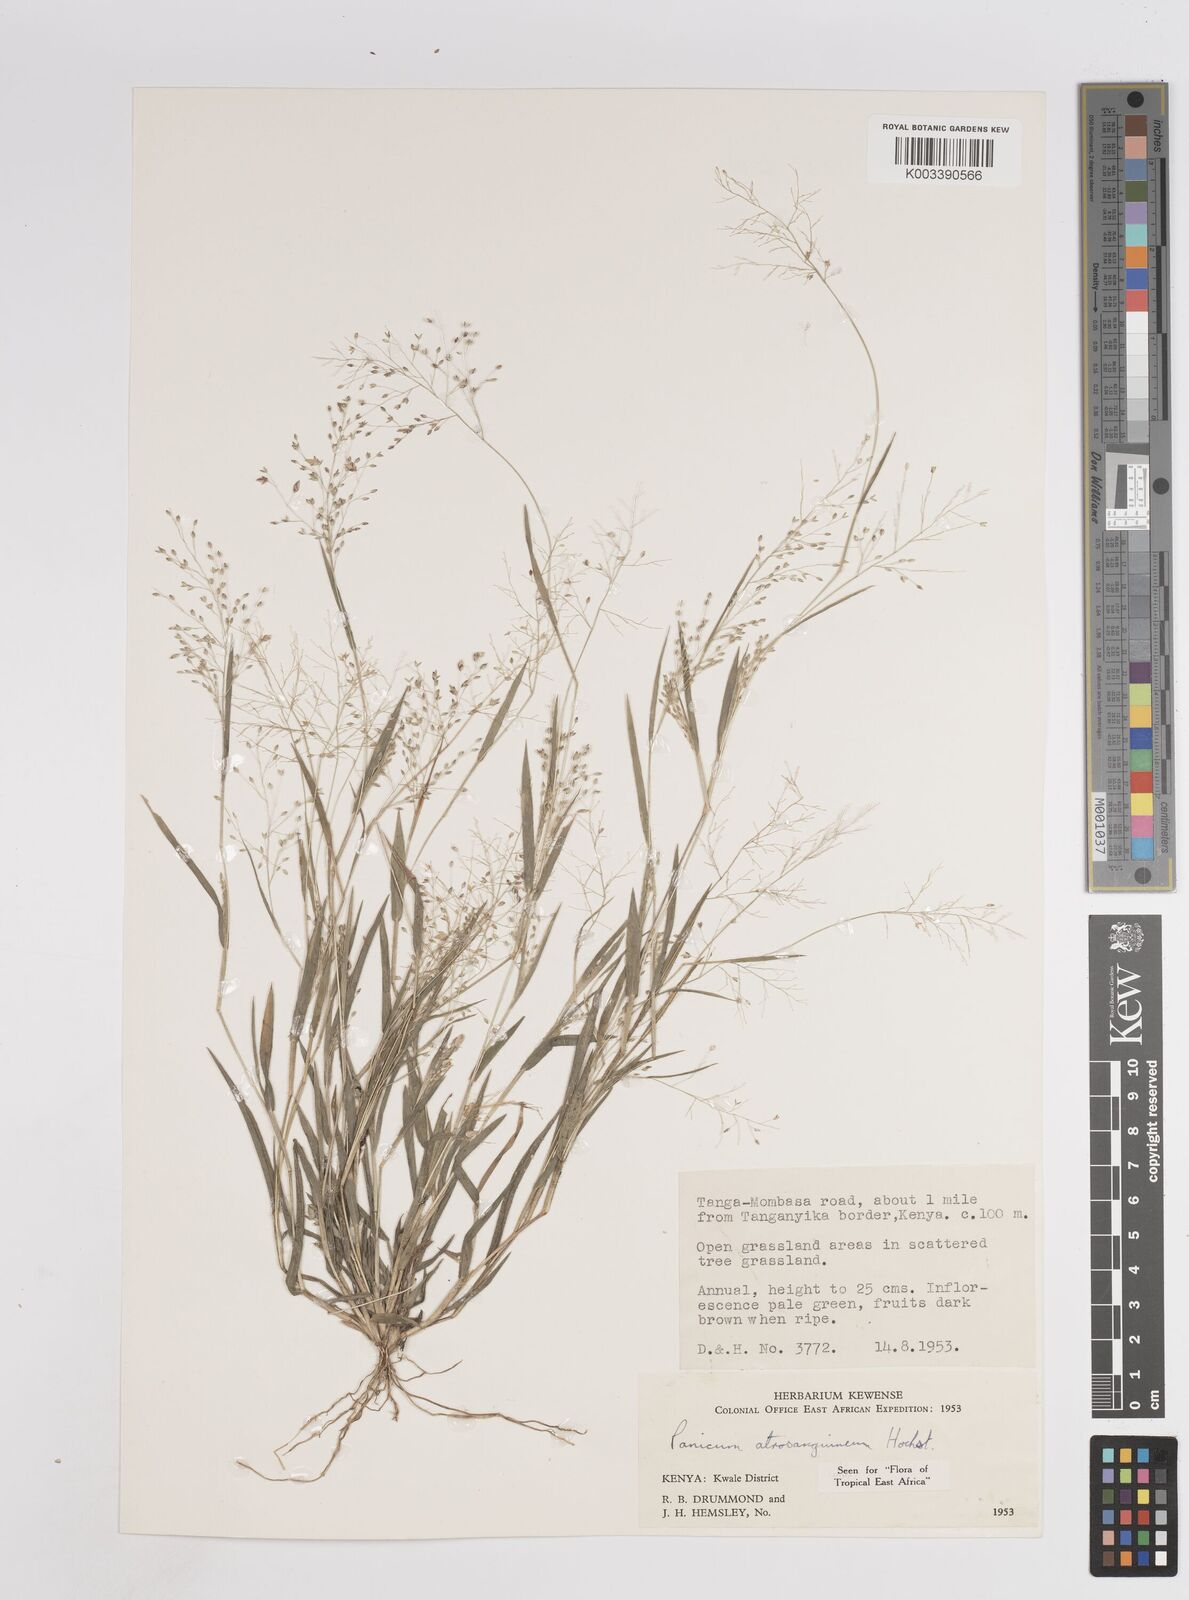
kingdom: Plantae
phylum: Tracheophyta
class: Liliopsida
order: Poales
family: Poaceae
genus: Panicum
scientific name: Panicum atrosanguineum
